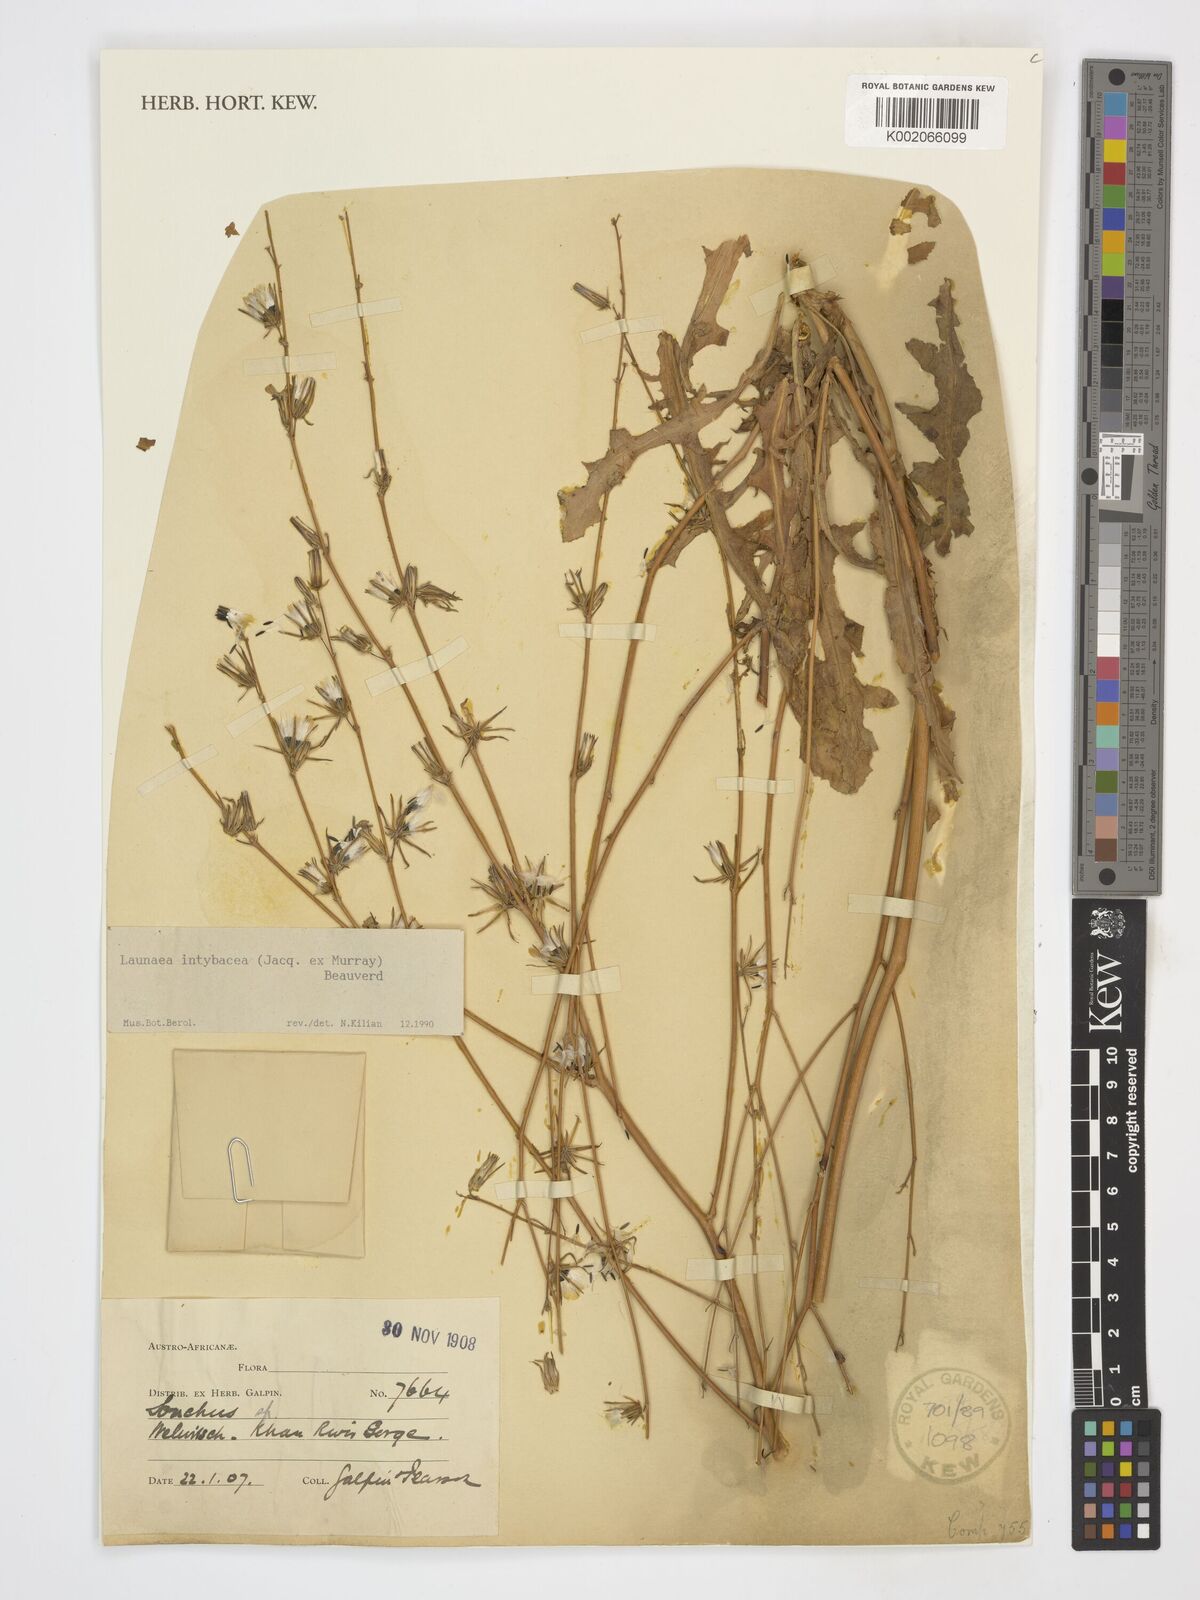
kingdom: Plantae
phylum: Tracheophyta
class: Magnoliopsida
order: Asterales
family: Asteraceae
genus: Launaea
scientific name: Launaea intybacea
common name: Achicoria azul
